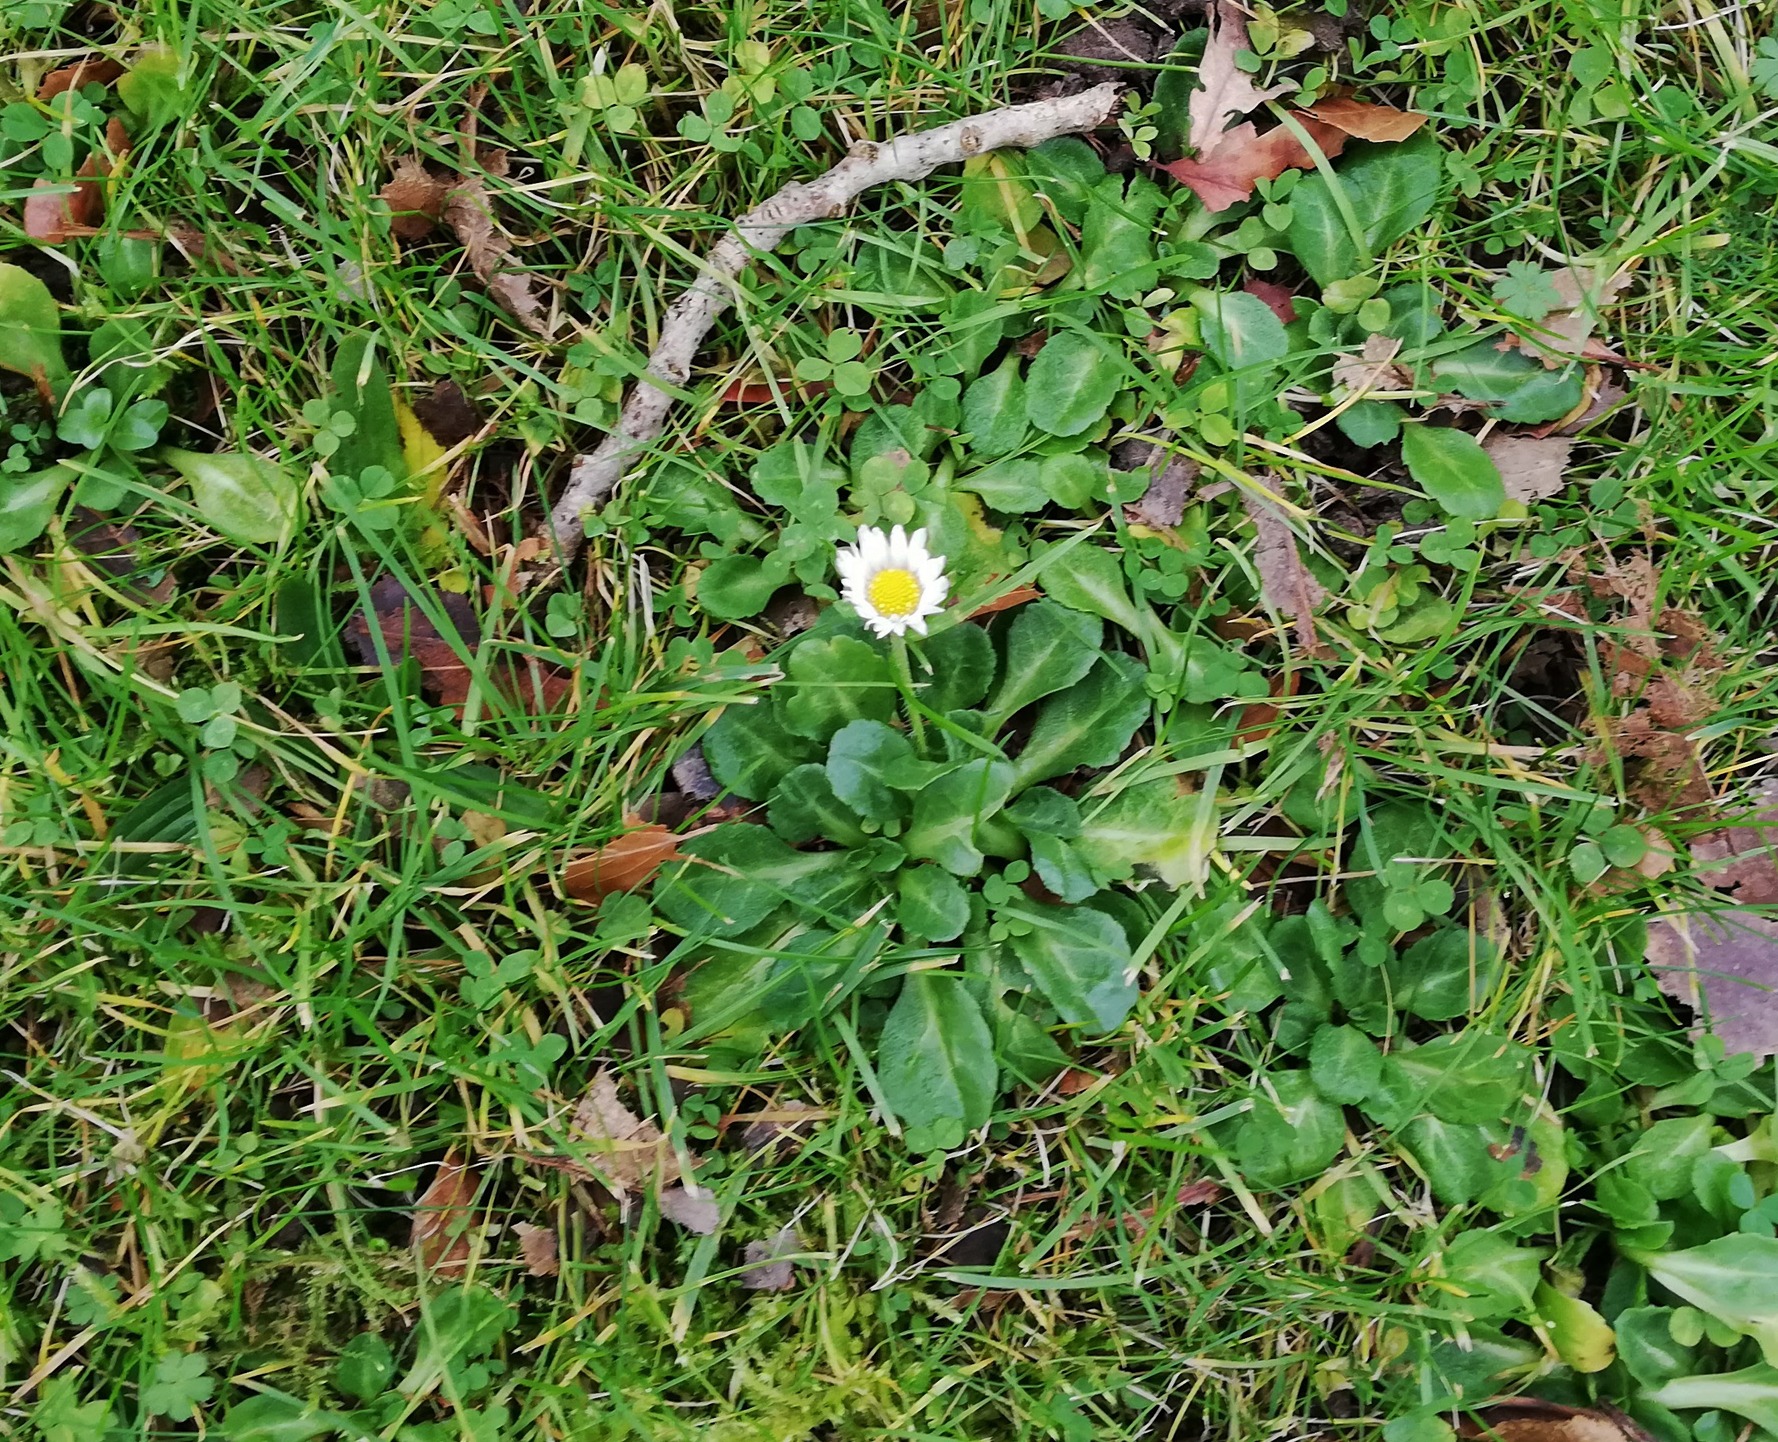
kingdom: Plantae
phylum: Tracheophyta
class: Magnoliopsida
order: Asterales
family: Asteraceae
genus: Bellis
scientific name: Bellis perennis
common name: Tusindfryd
